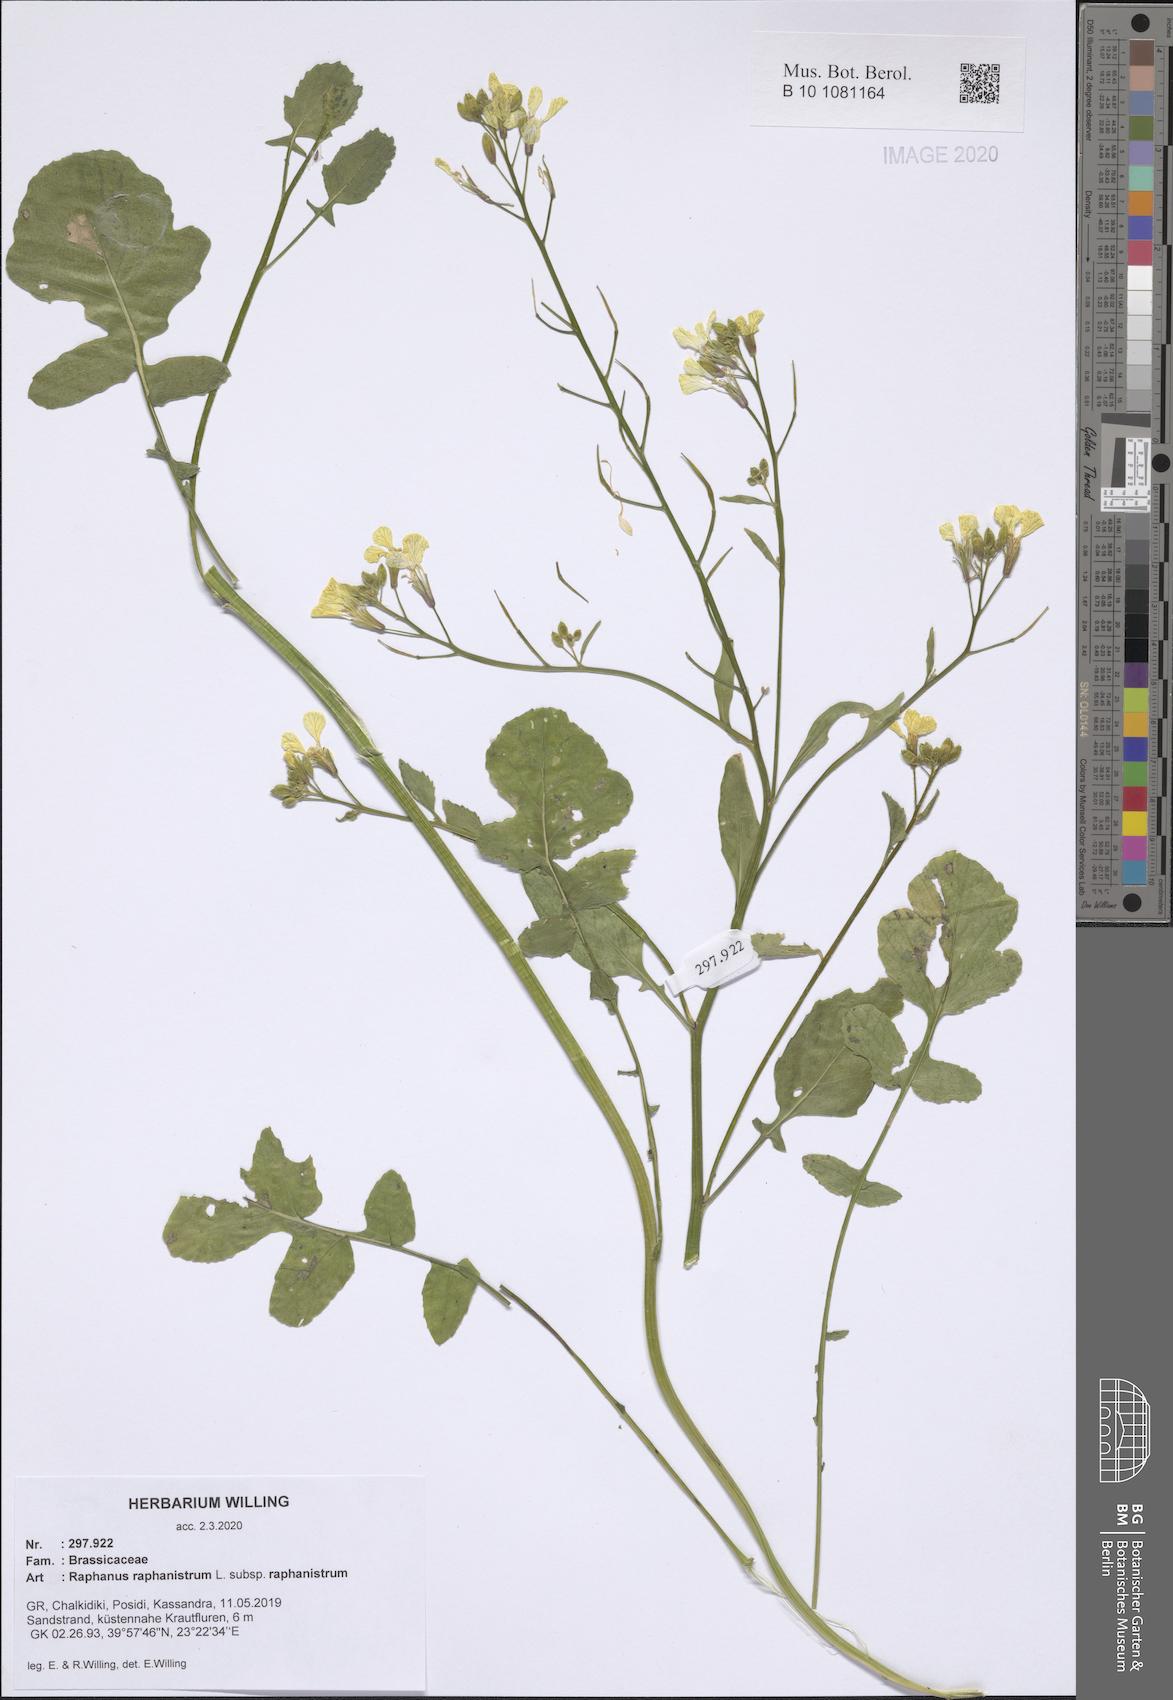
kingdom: Plantae
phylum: Tracheophyta
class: Magnoliopsida
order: Brassicales
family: Brassicaceae
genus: Raphanus
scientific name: Raphanus raphanistrum
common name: Wild radish
